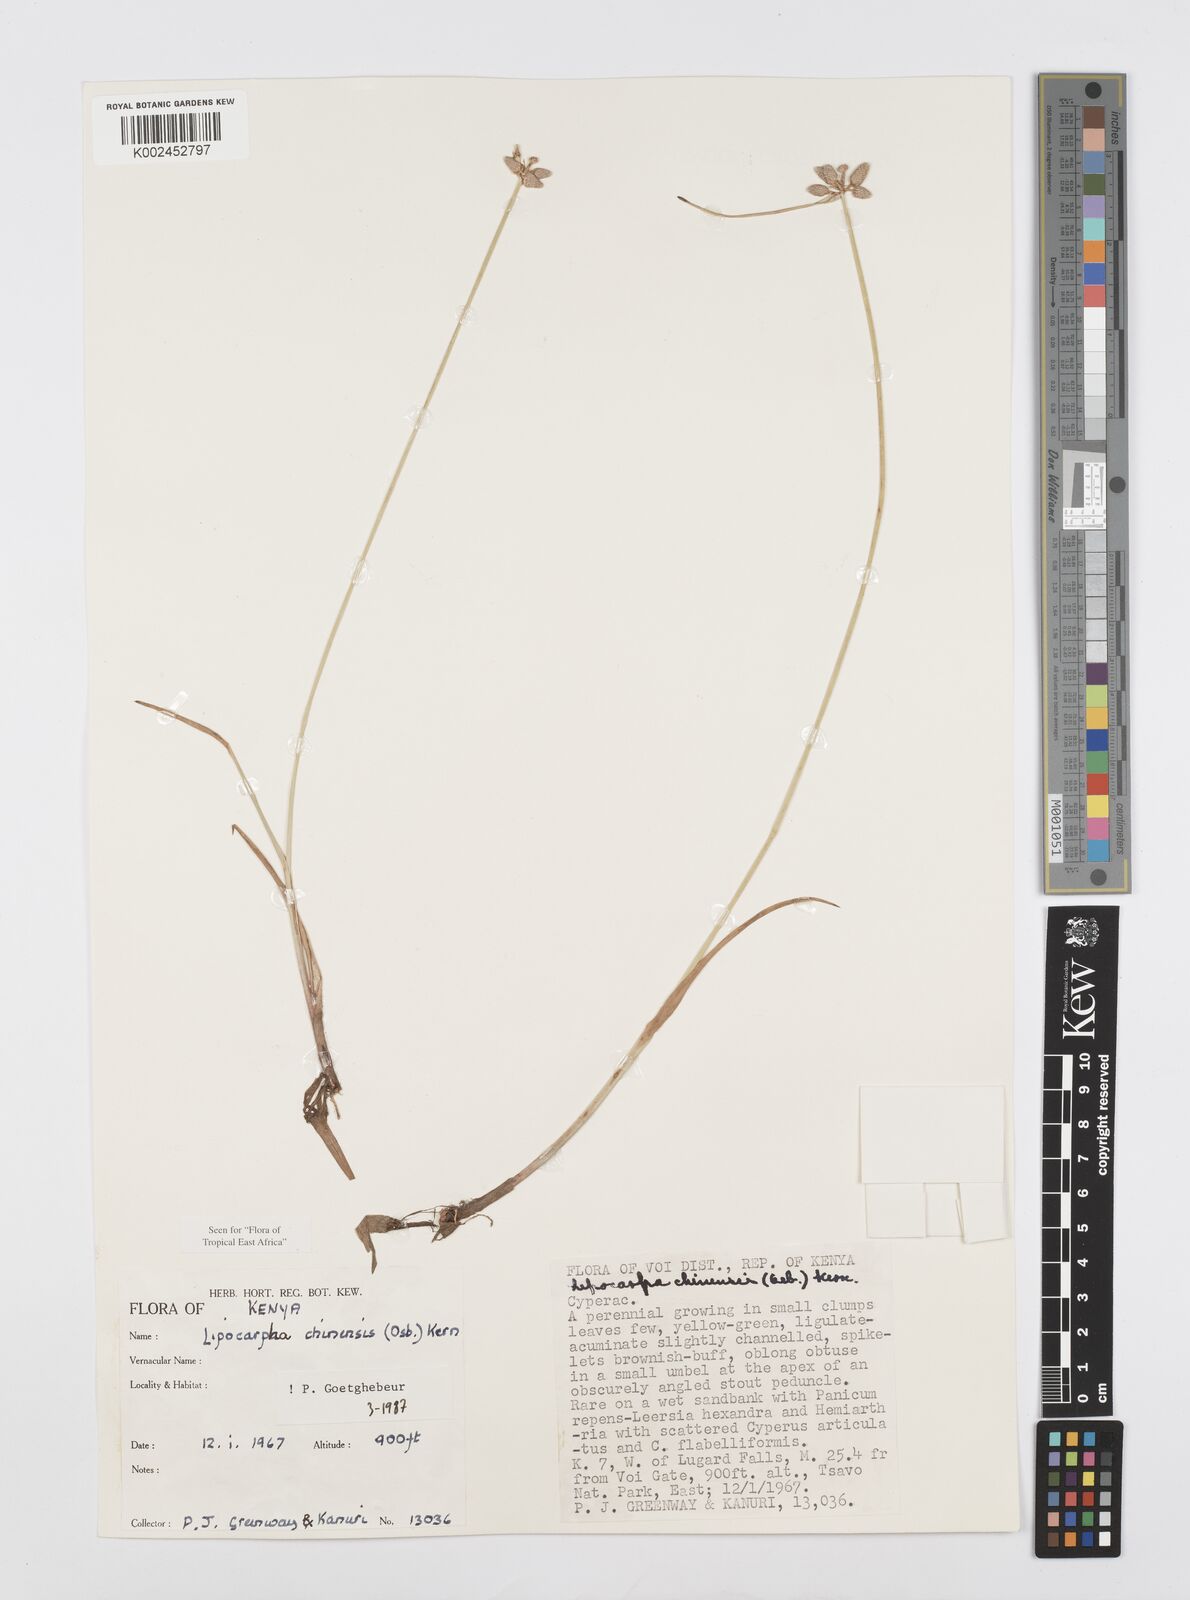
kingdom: Plantae
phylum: Tracheophyta
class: Liliopsida
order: Poales
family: Cyperaceae
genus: Cyperus
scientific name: Cyperus albescens
